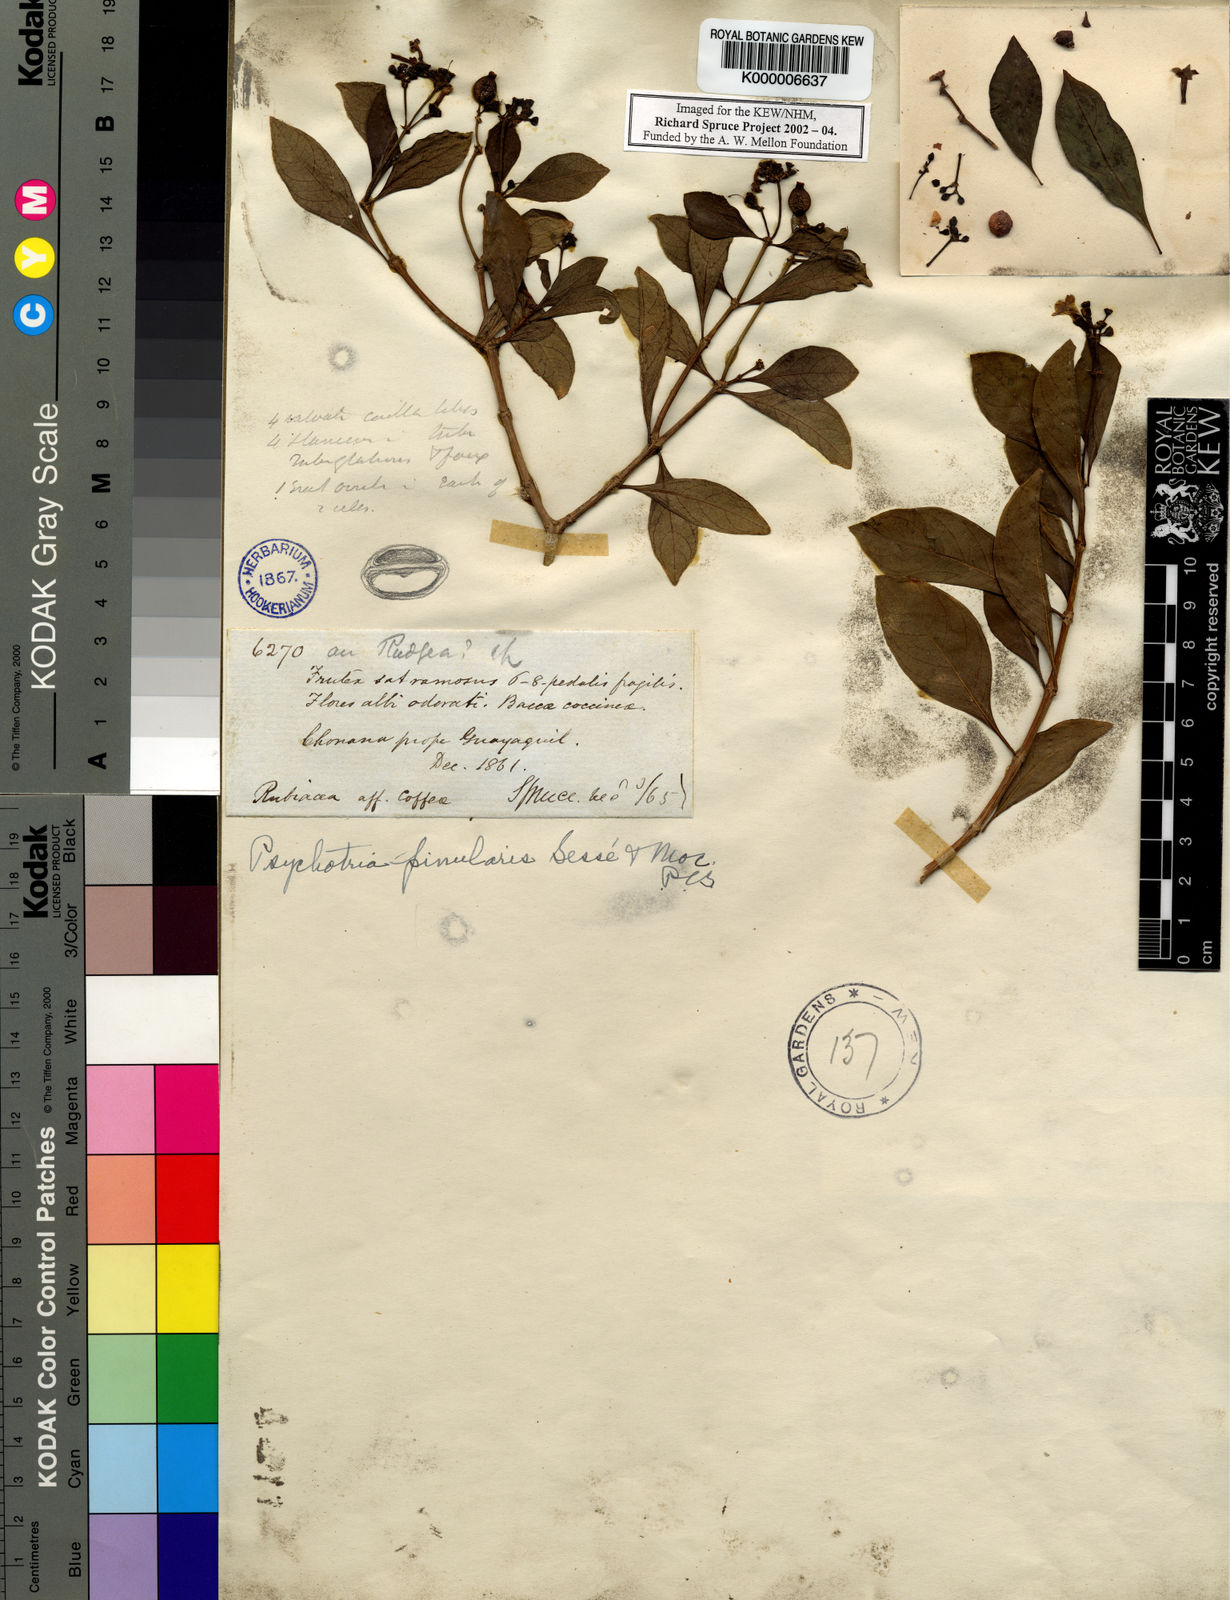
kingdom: Plantae
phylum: Tracheophyta
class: Magnoliopsida
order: Gentianales
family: Rubiaceae
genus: Psychotria
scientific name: Psychotria
